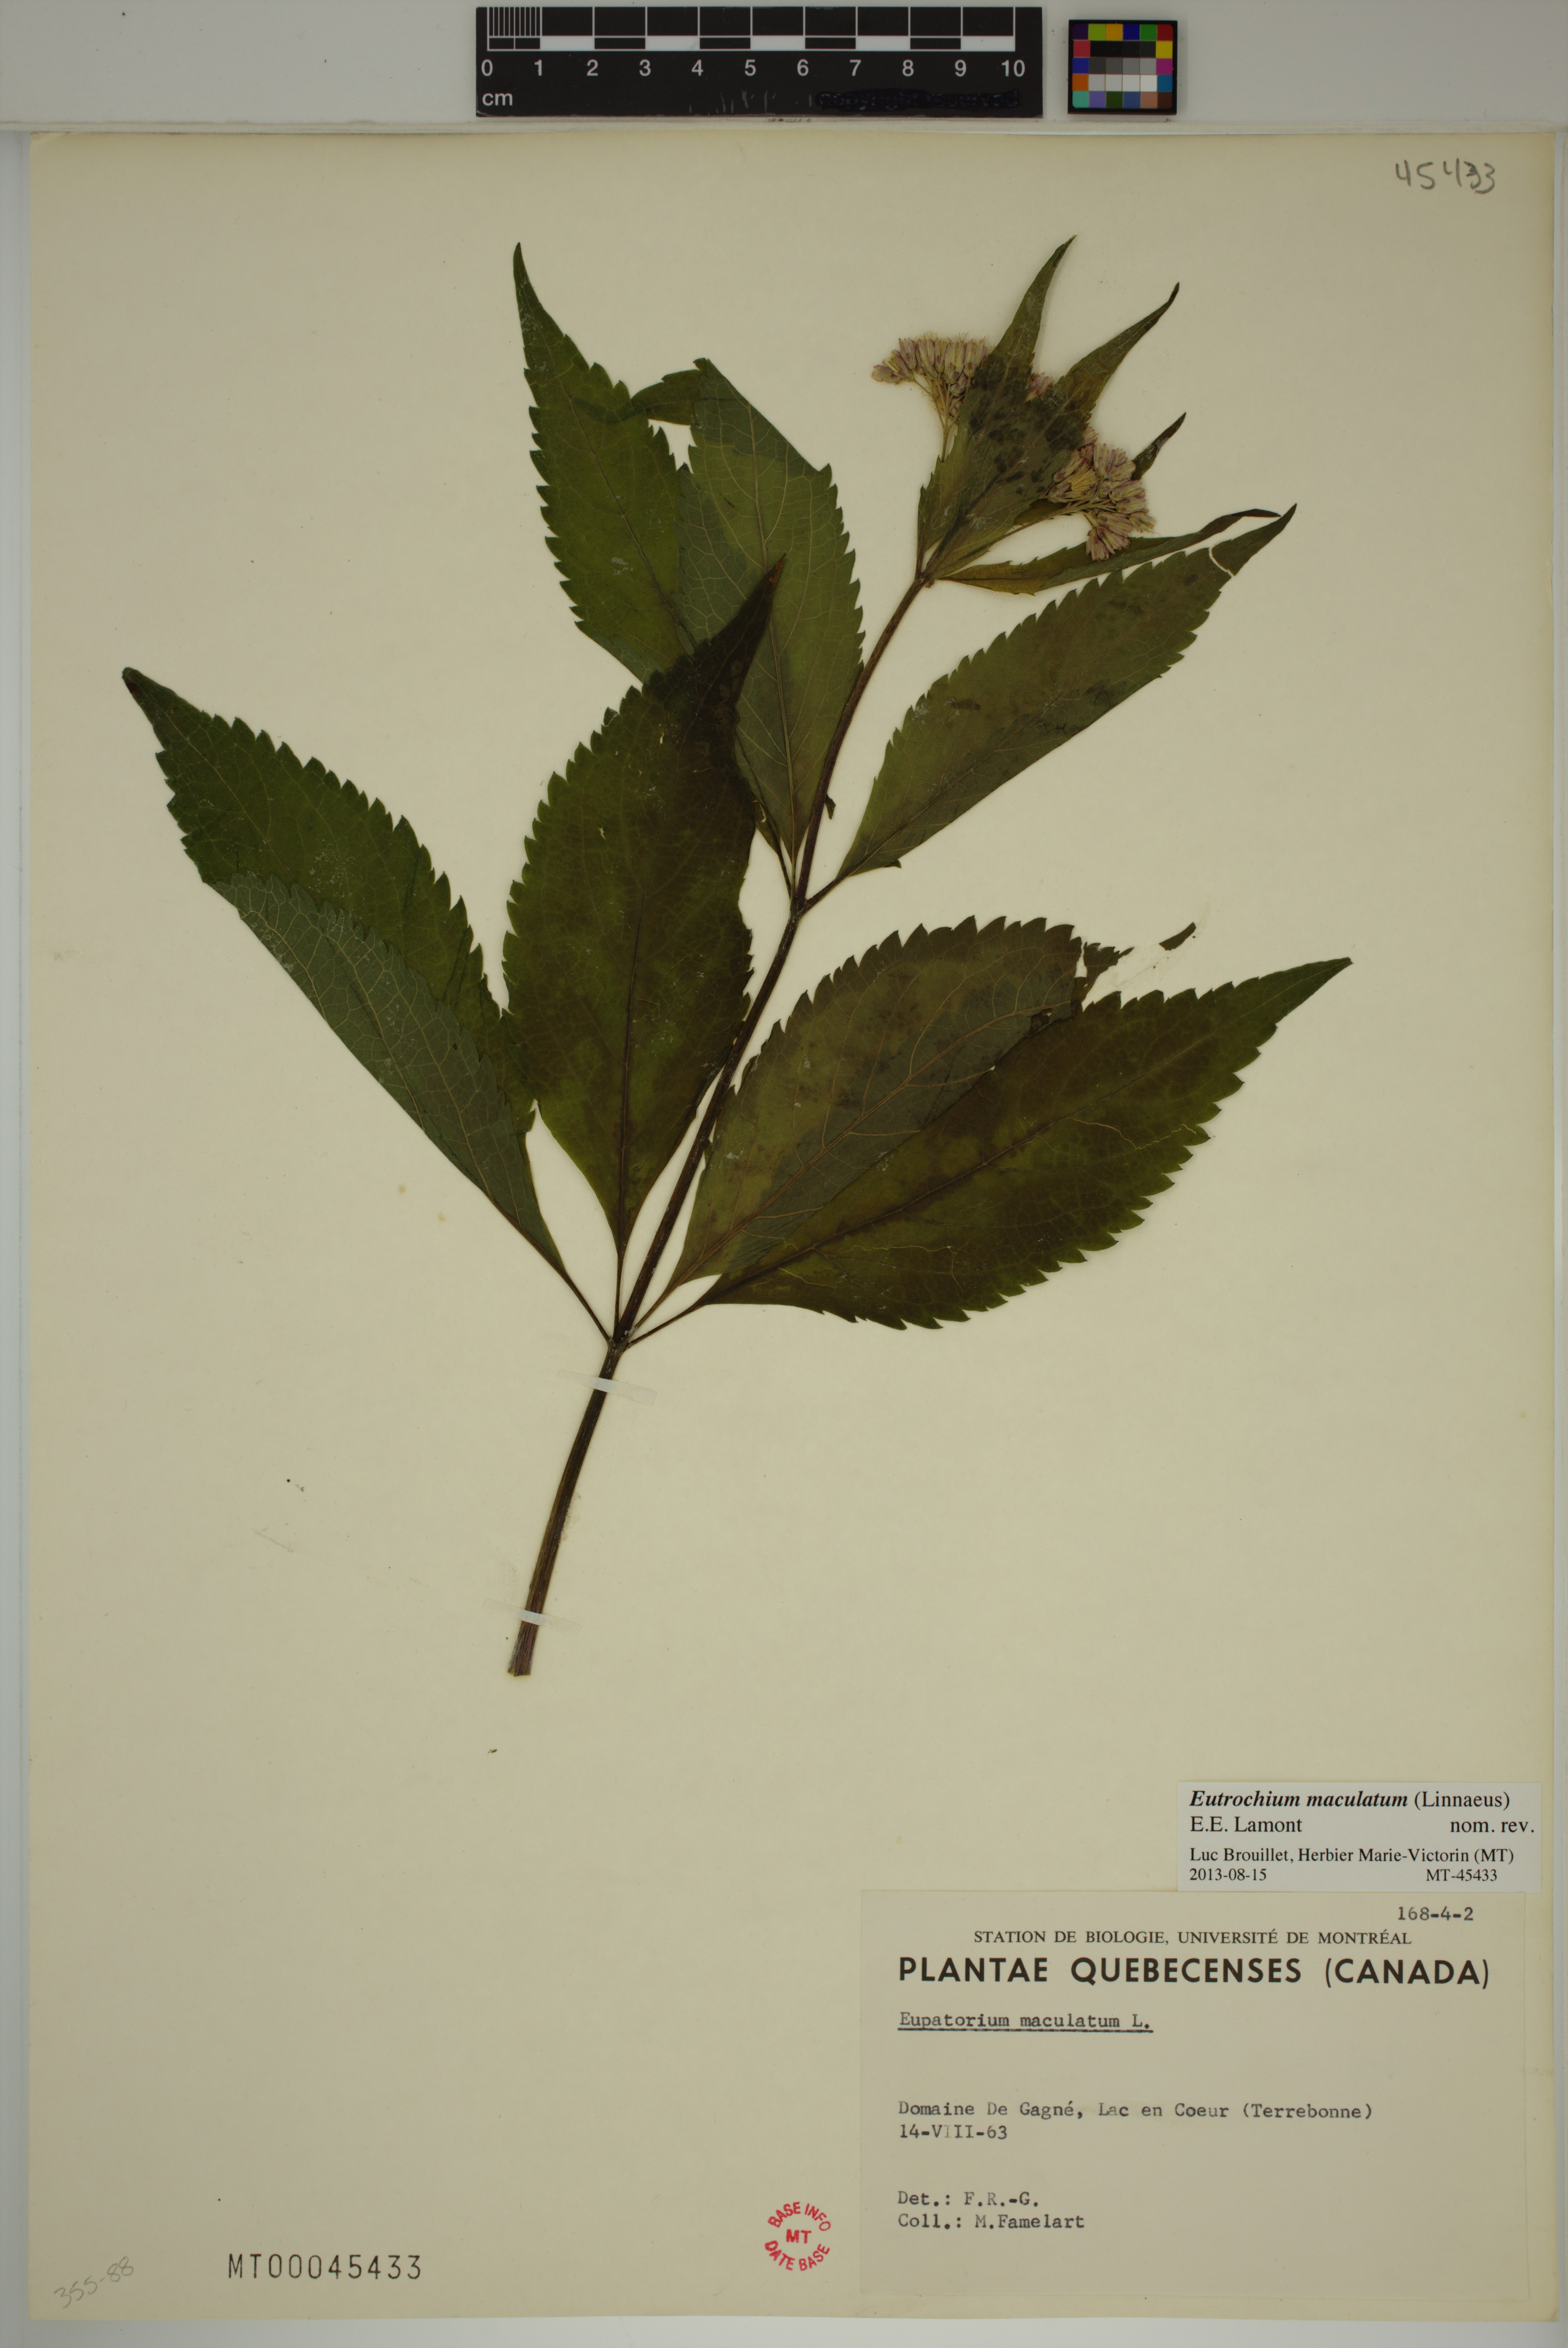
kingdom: Plantae
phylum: Tracheophyta
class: Magnoliopsida
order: Asterales
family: Asteraceae
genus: Eutrochium
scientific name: Eutrochium maculatum
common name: Spotted joe pye weed
